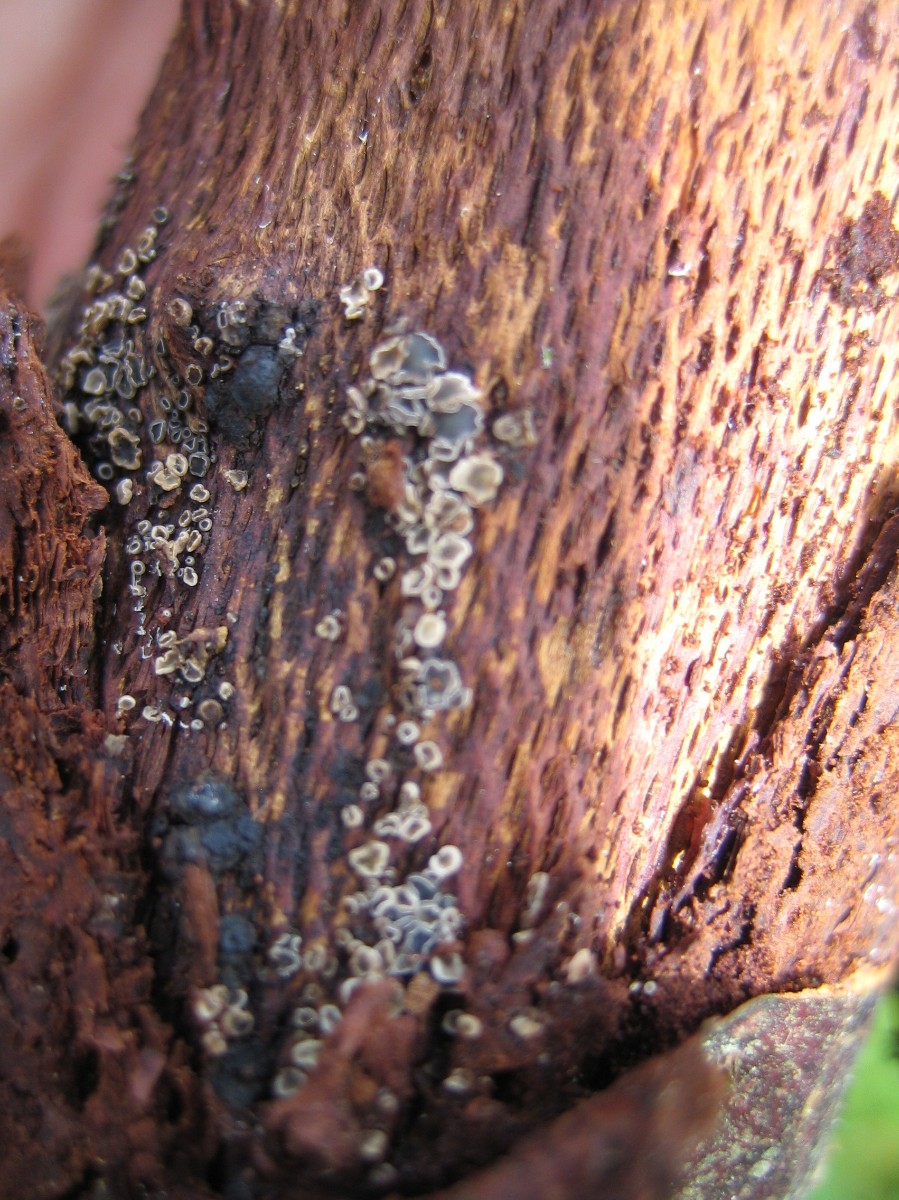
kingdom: Fungi
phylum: Ascomycota
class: Leotiomycetes
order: Helotiales
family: Mollisiaceae
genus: Mollisia
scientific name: Mollisia
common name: gråskive
